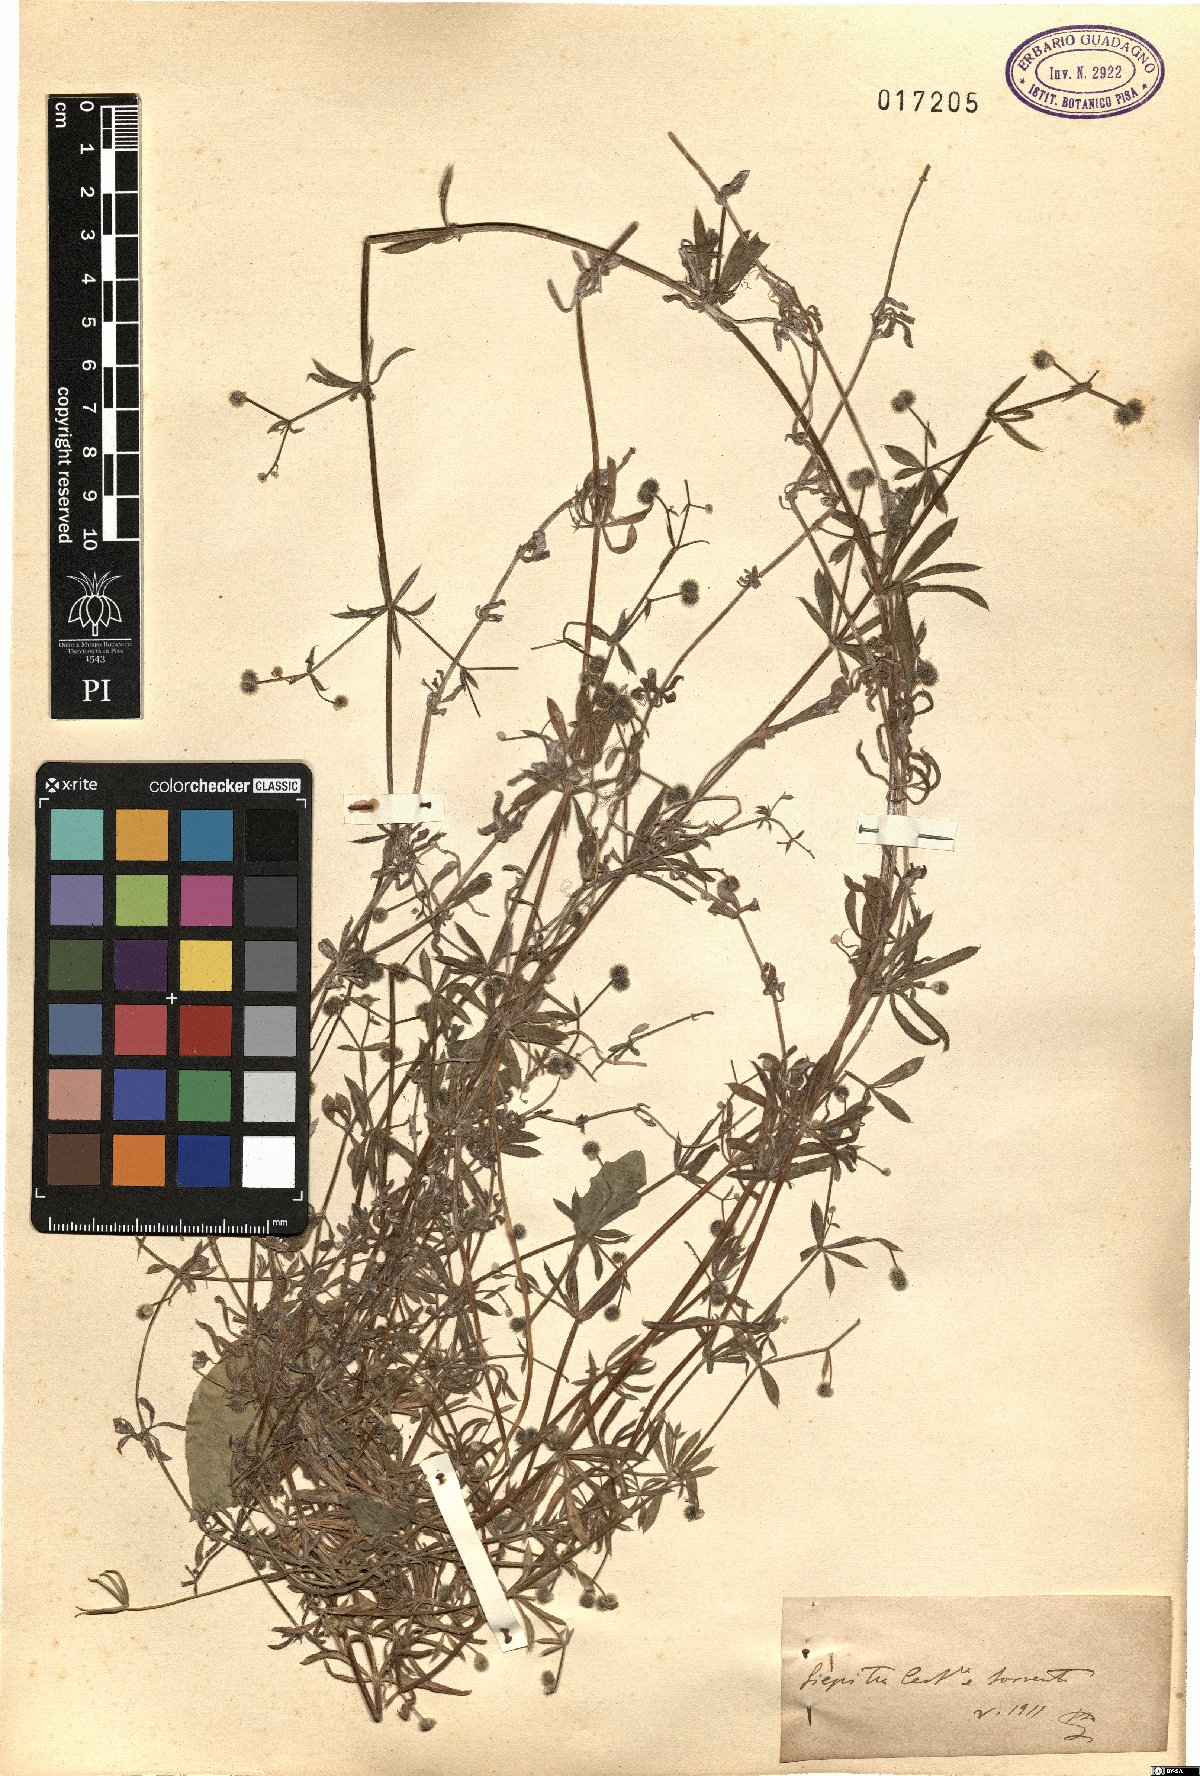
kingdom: Plantae
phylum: Tracheophyta
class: Magnoliopsida
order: Gentianales
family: Rubiaceae
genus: Galium
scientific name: Galium
